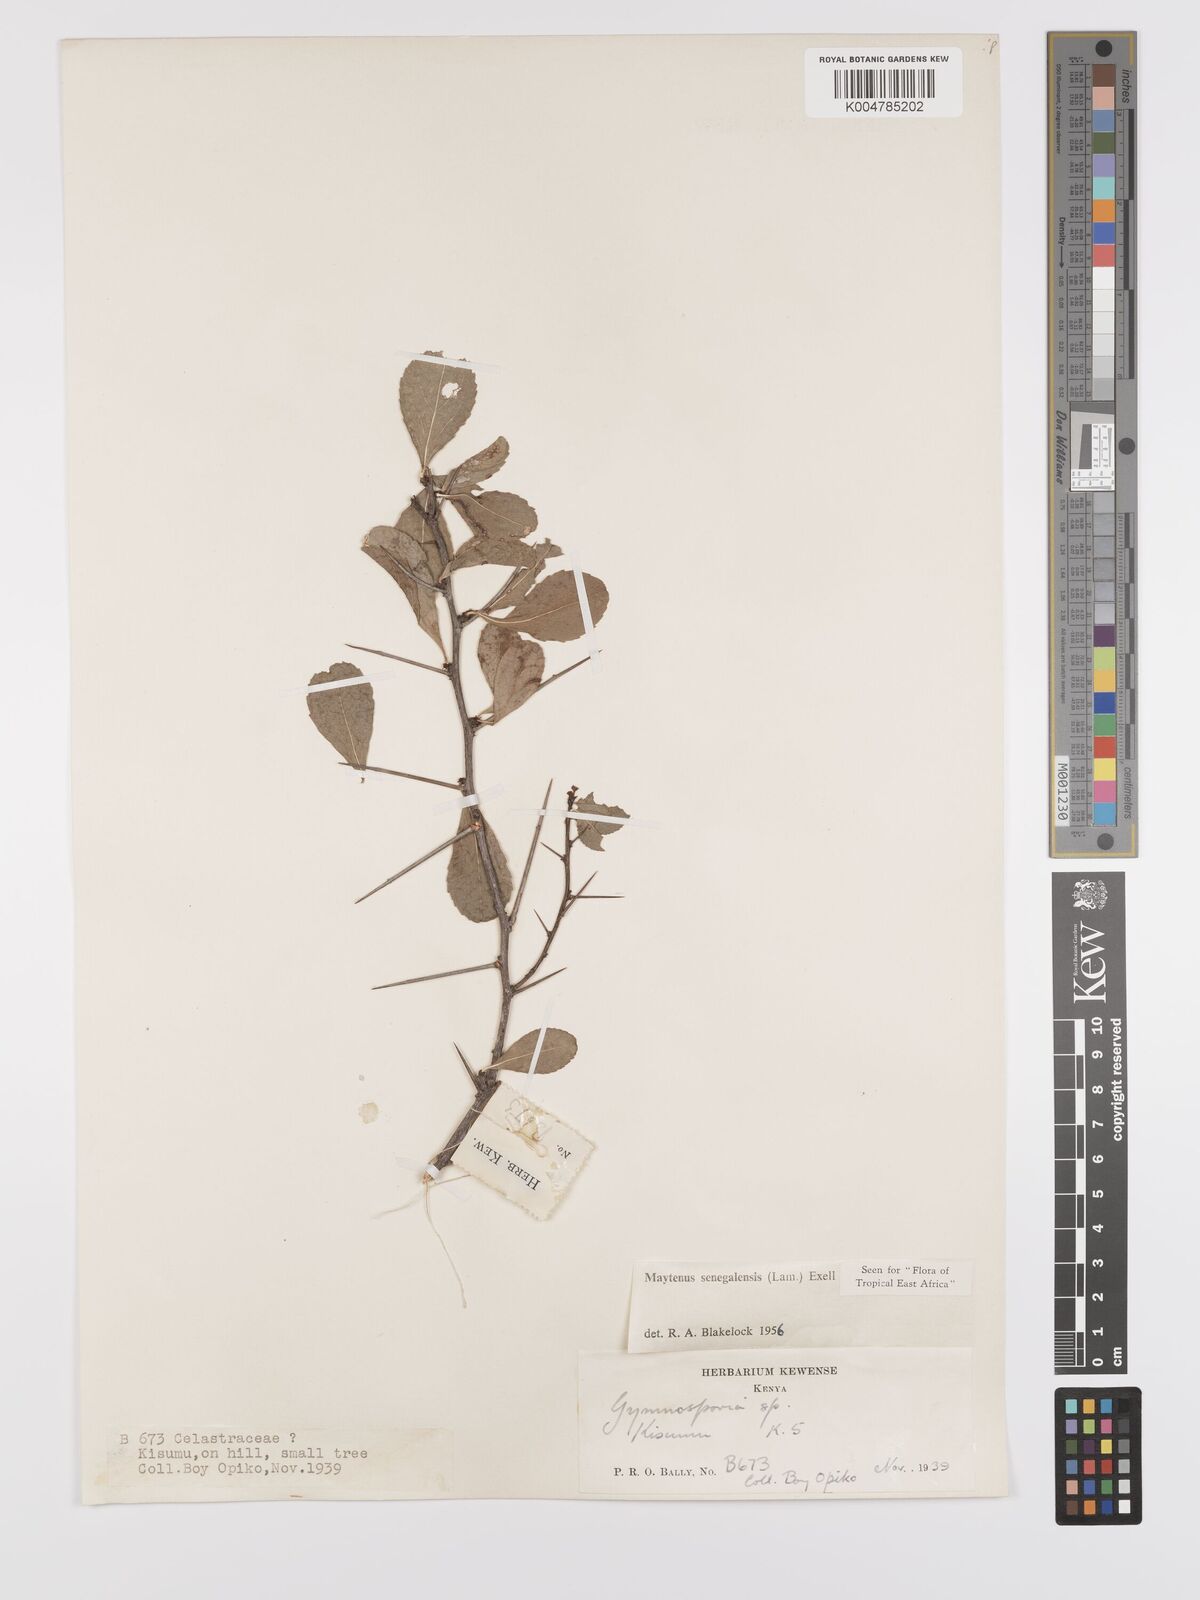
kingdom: Plantae
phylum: Tracheophyta
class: Magnoliopsida
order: Celastrales
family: Celastraceae
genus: Gymnosporia
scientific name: Gymnosporia heterophylla
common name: Angle-stem spikethorn
